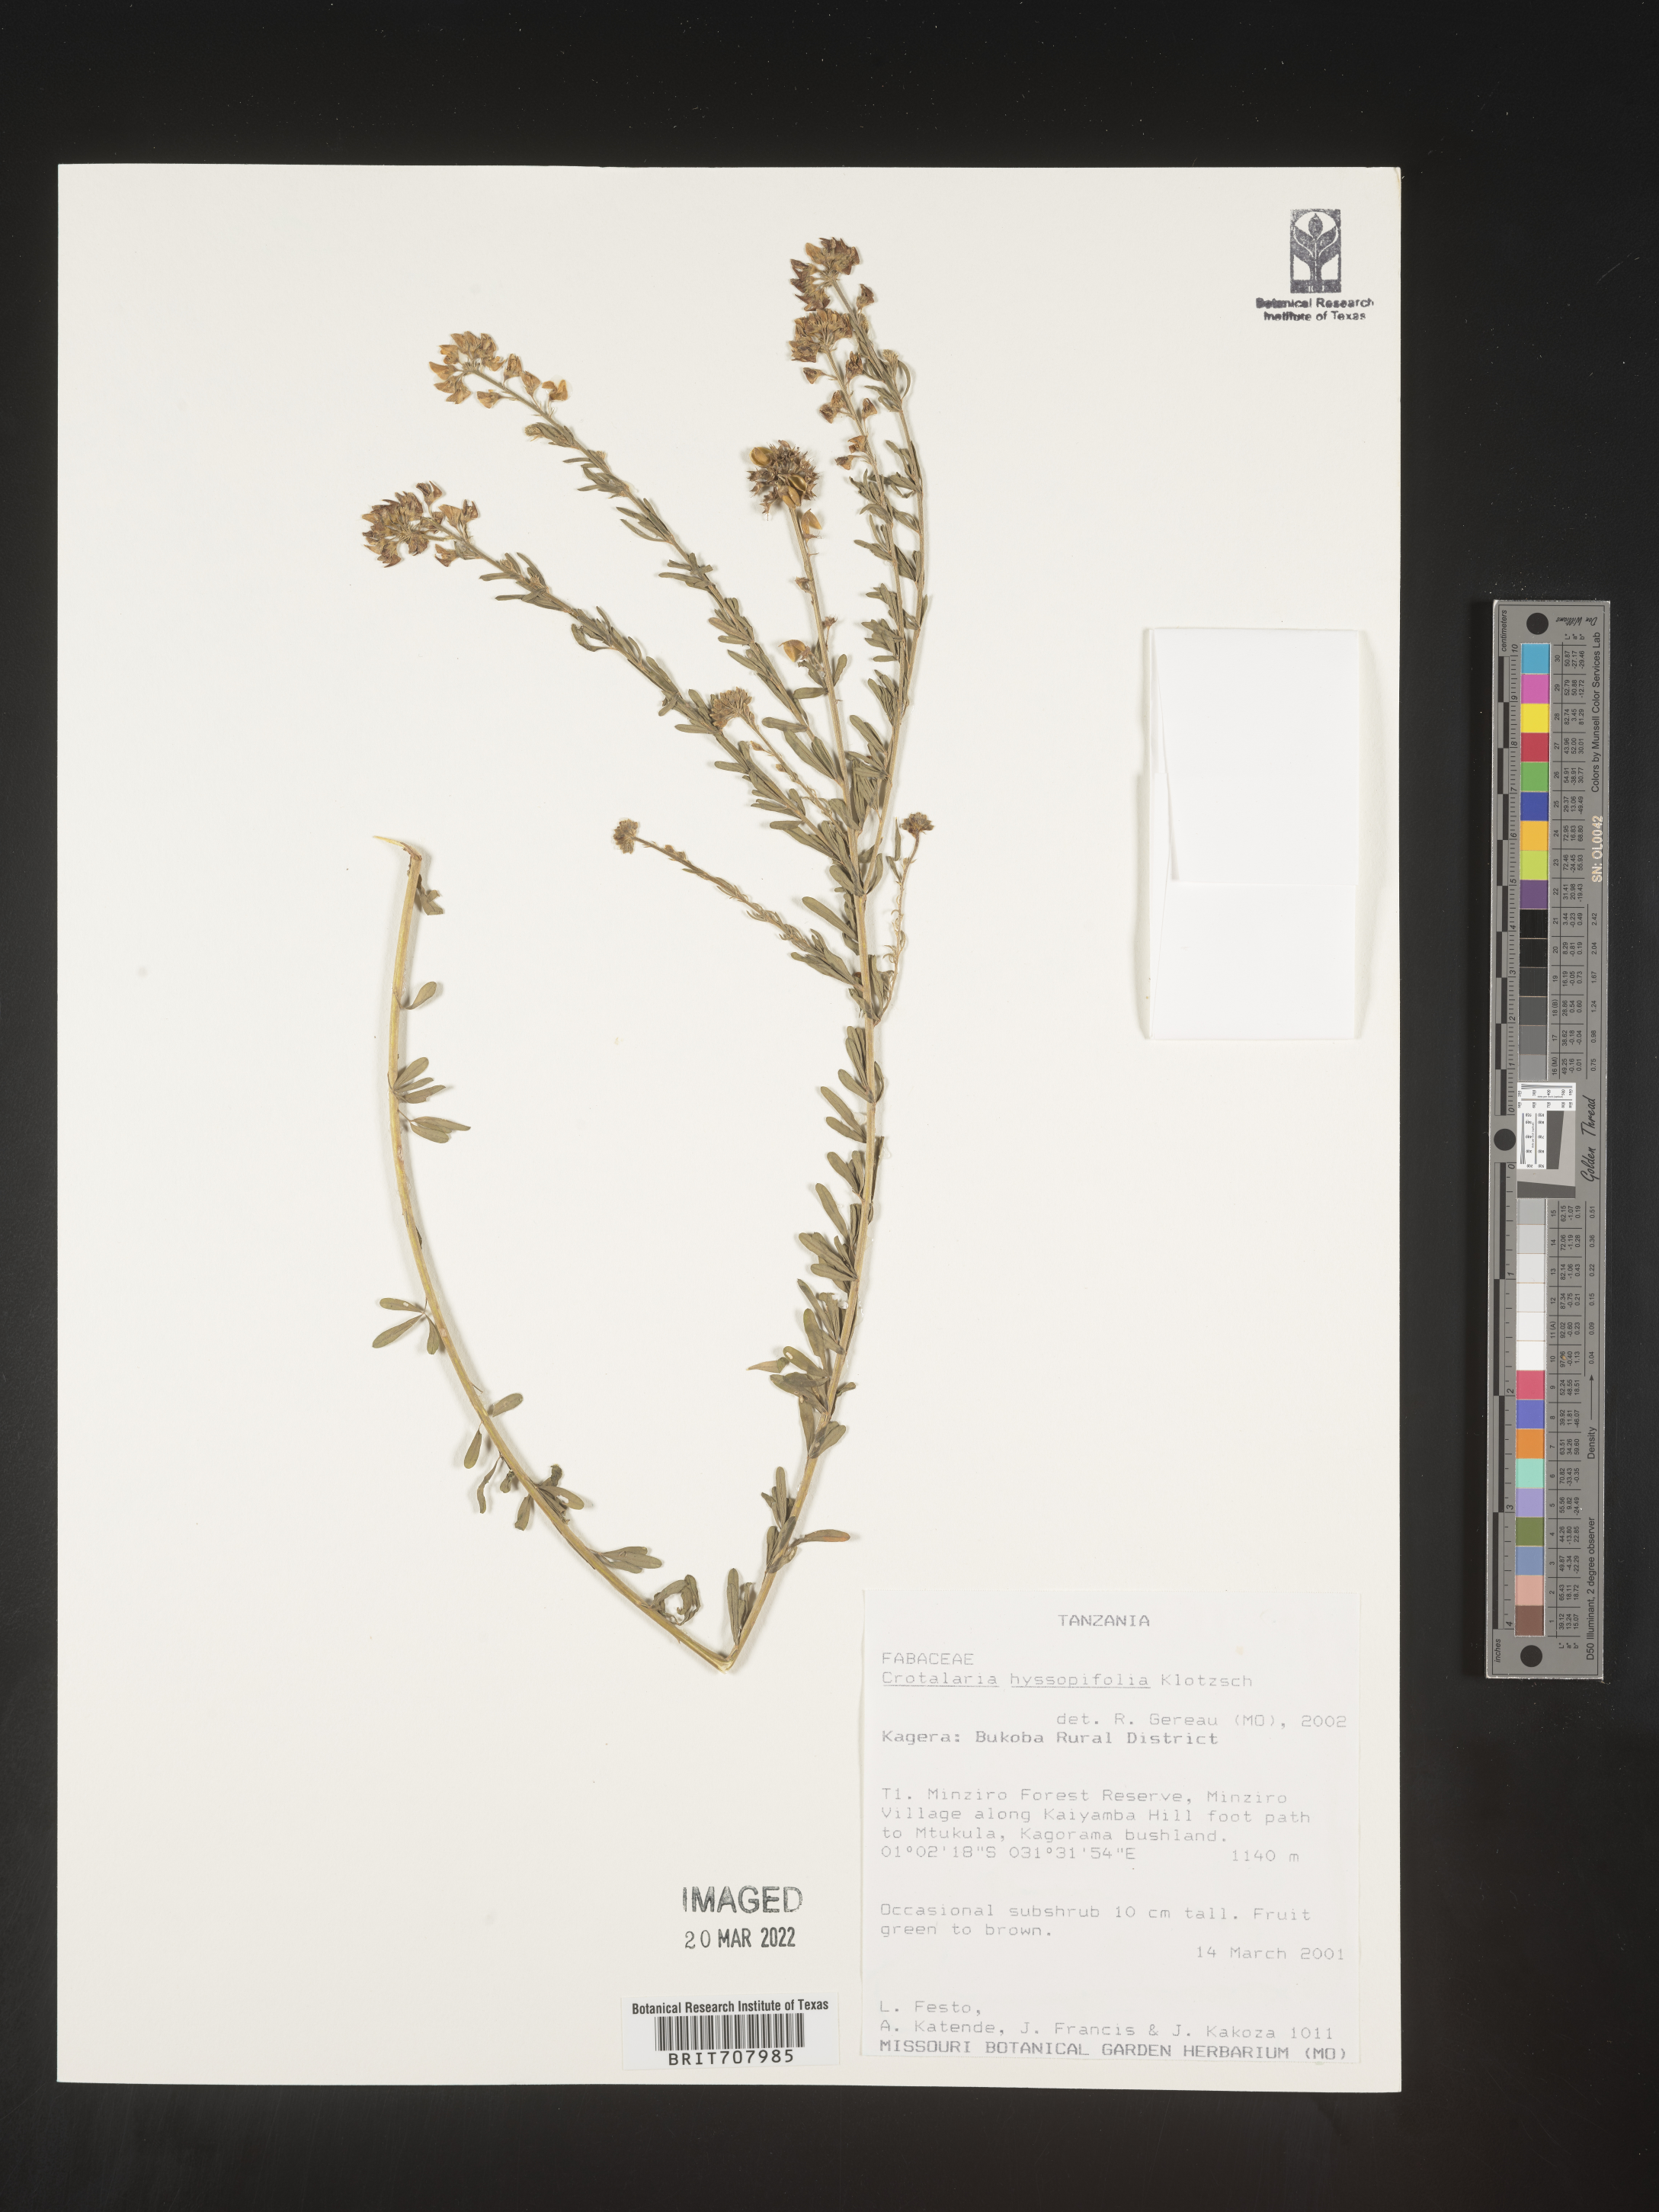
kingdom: Plantae
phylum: Tracheophyta
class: Magnoliopsida
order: Fabales
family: Fabaceae
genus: Crotalaria
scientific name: Crotalaria
